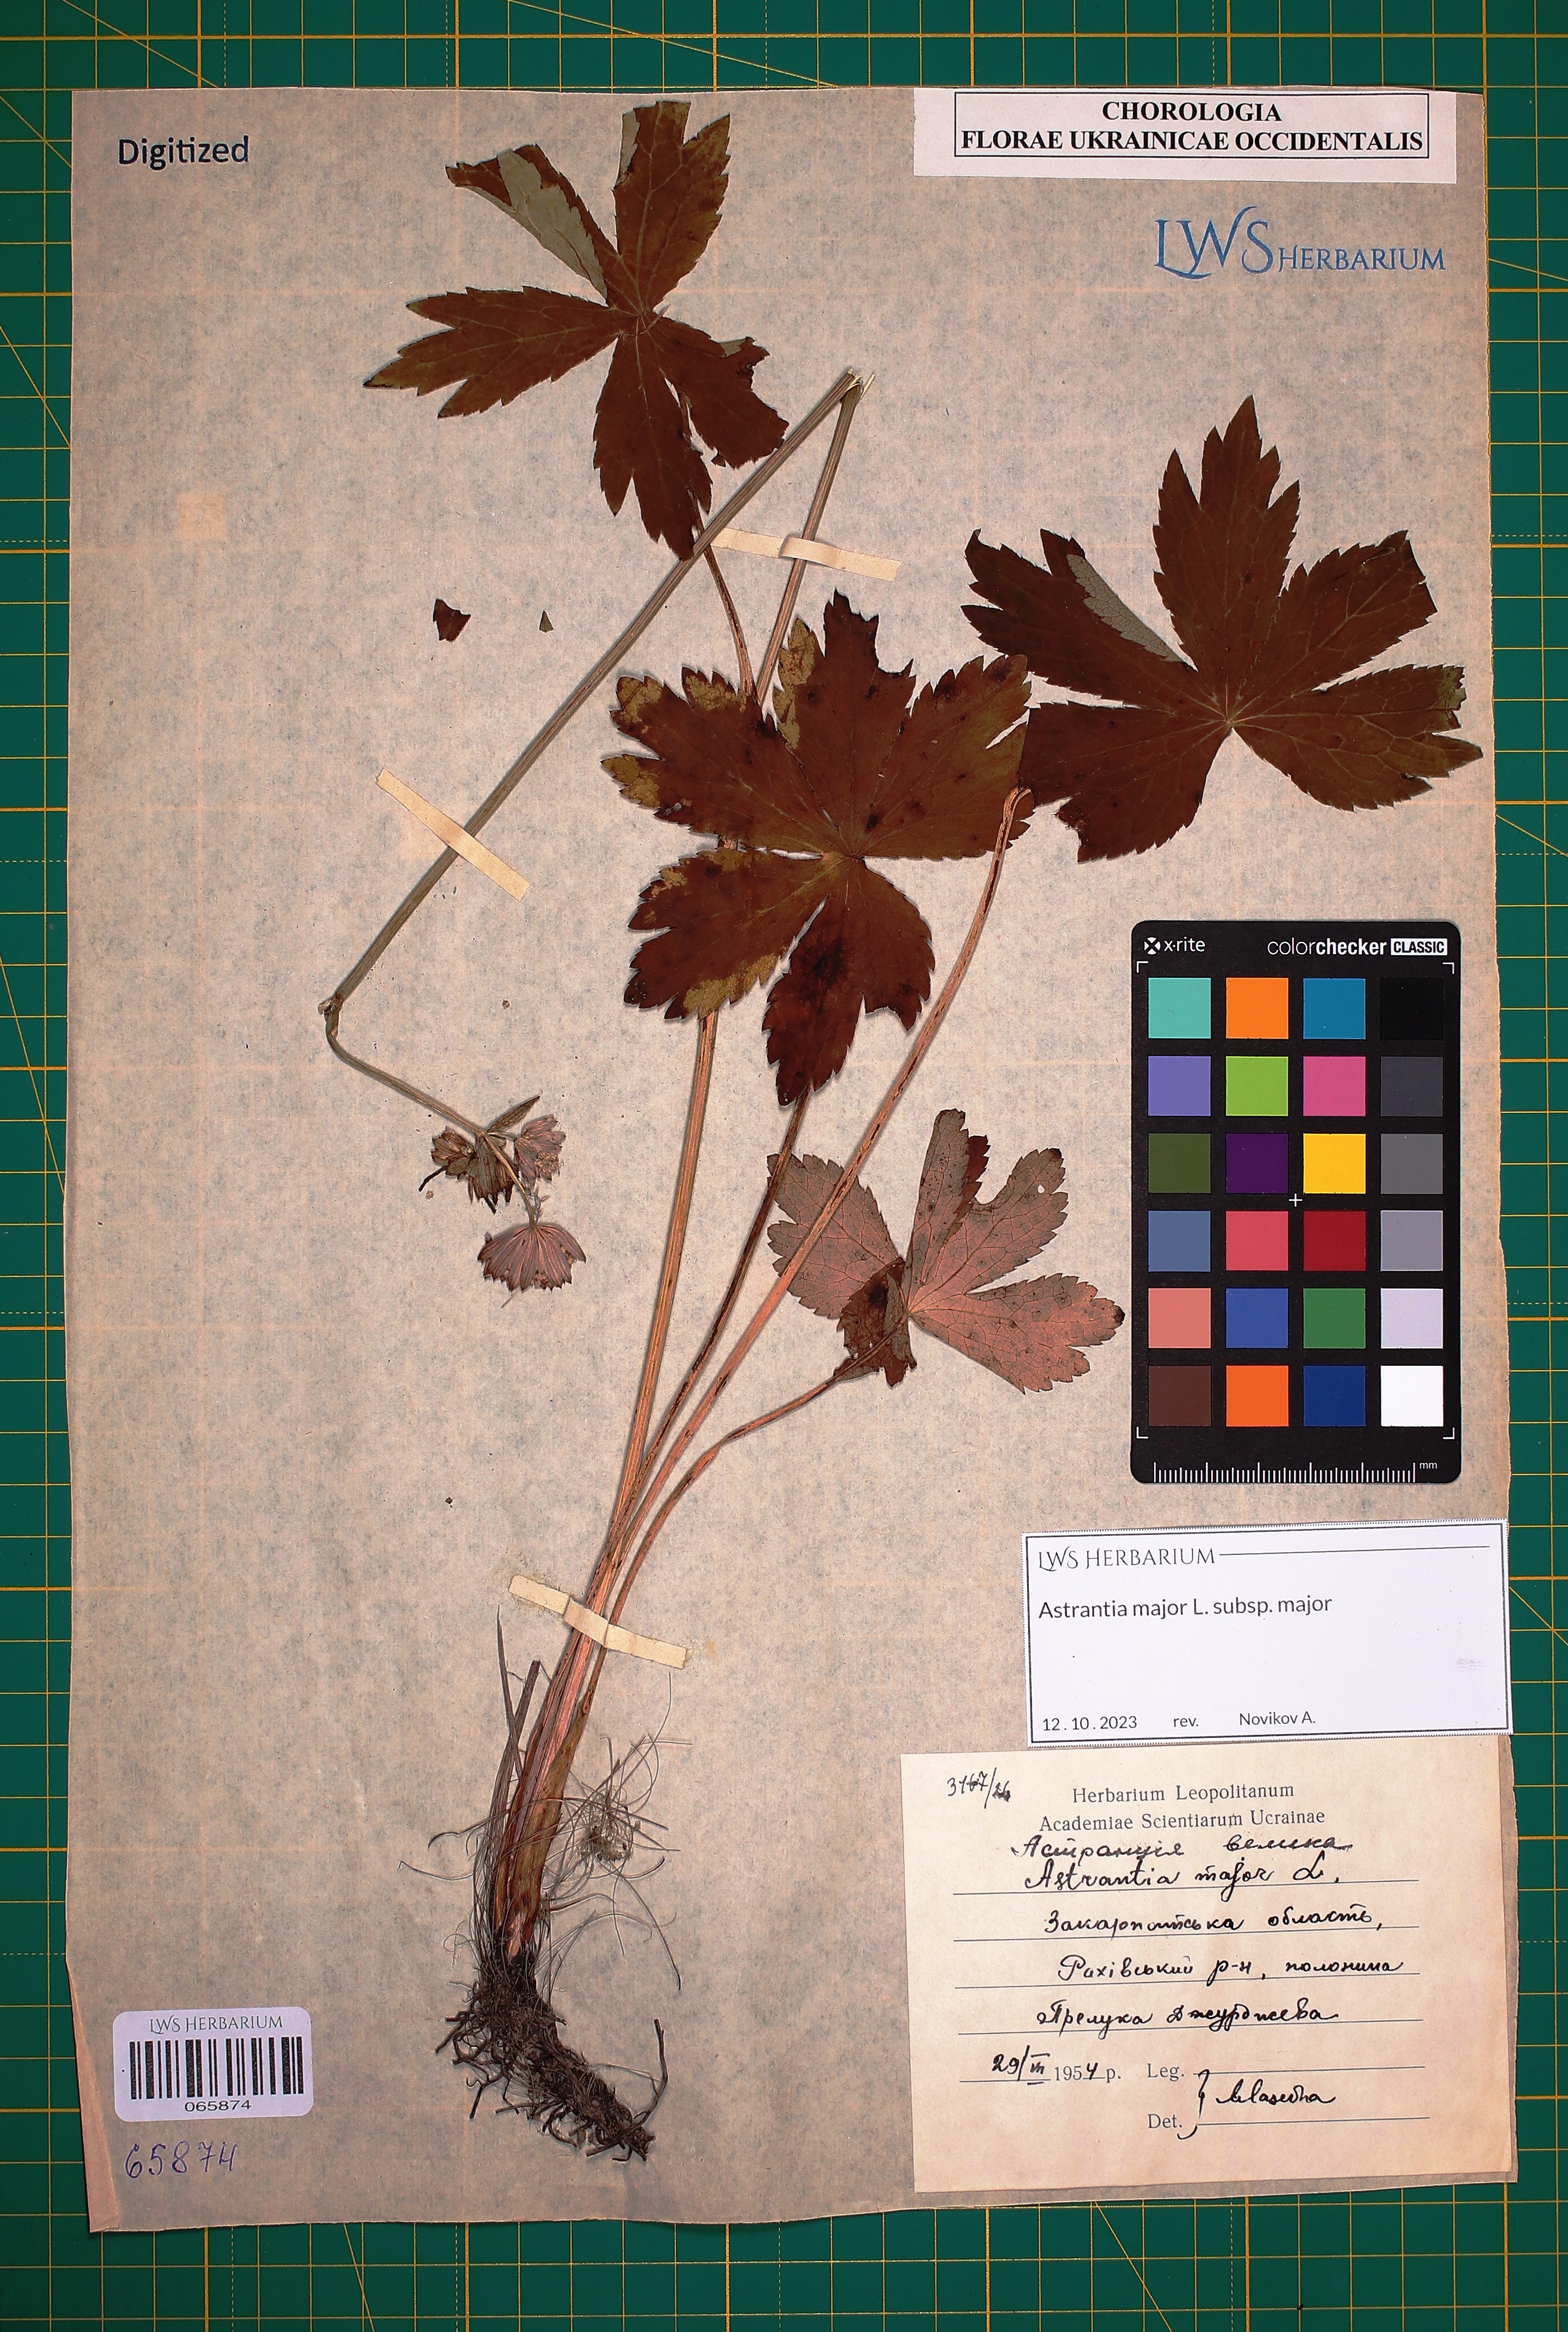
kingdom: Plantae
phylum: Tracheophyta
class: Magnoliopsida
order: Apiales
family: Apiaceae
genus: Astrantia
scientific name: Astrantia major
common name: Greater masterwort
